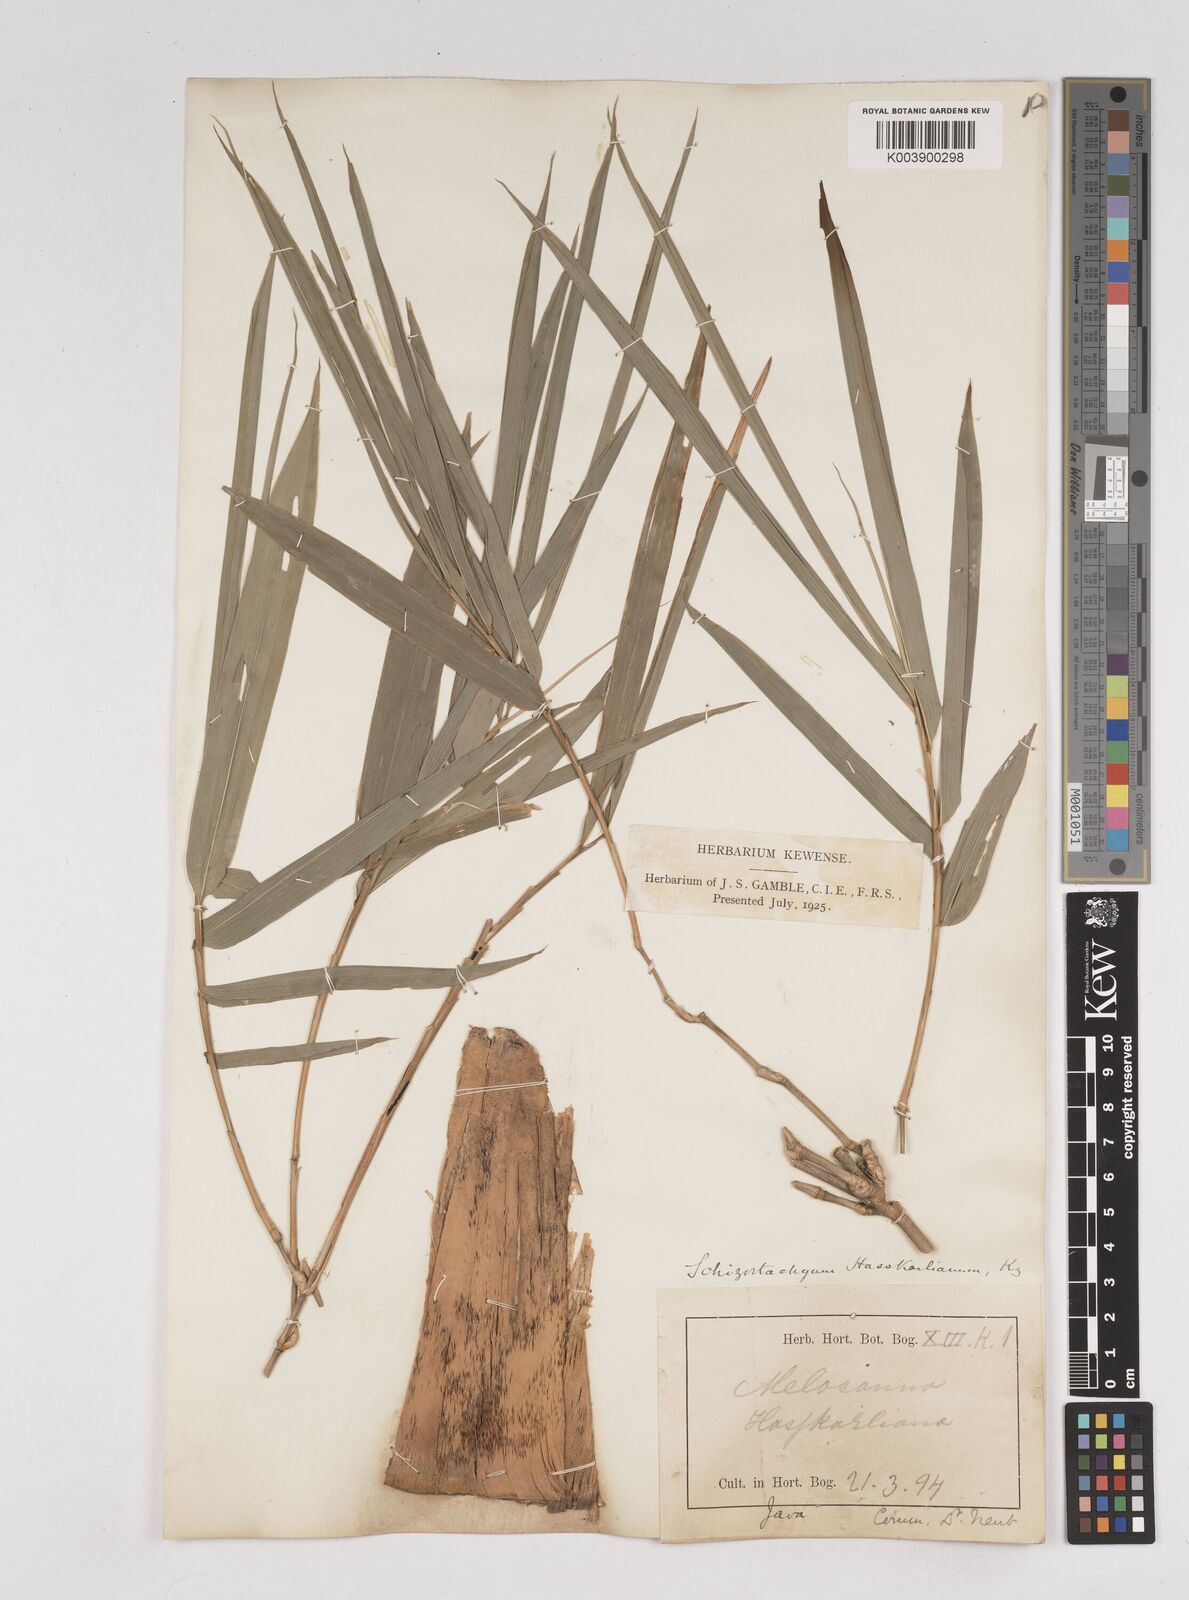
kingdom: Plantae
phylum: Tracheophyta
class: Liliopsida
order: Poales
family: Poaceae
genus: Gigantochloa
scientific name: Gigantochloa hasskarliana
